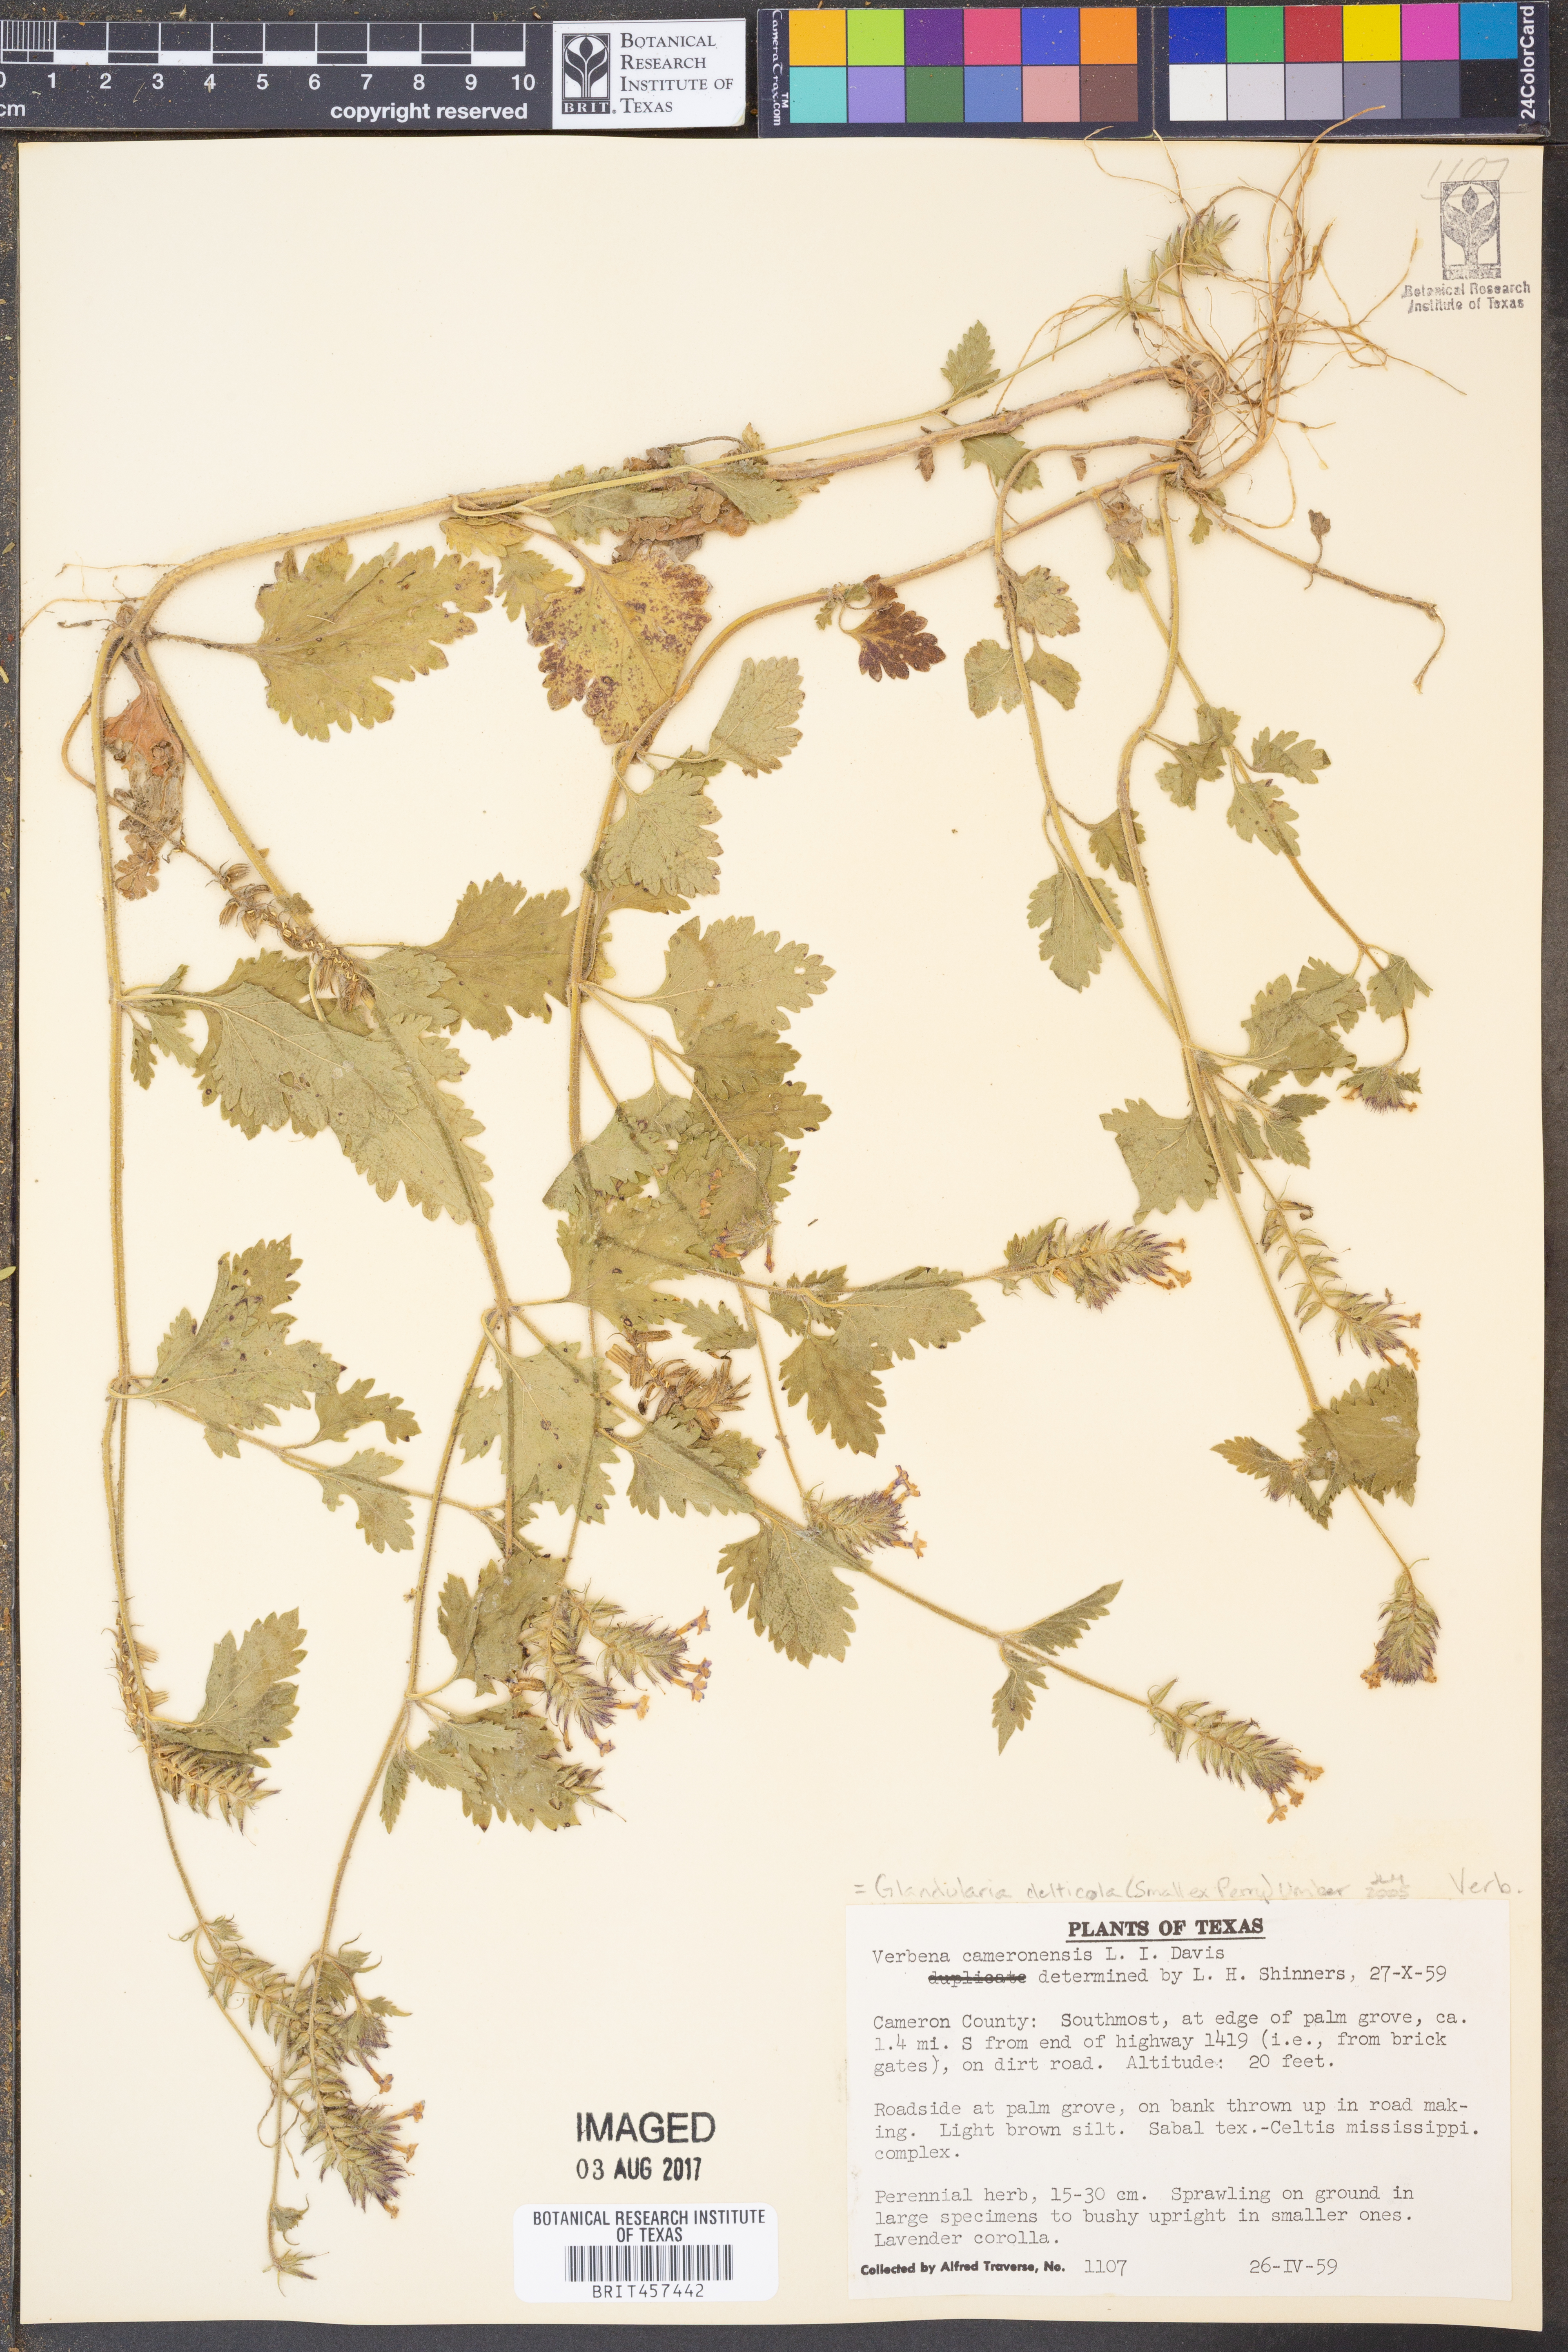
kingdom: Plantae
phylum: Tracheophyta
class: Magnoliopsida
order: Lamiales
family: Verbenaceae
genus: Verbena
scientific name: Verbena delticola
